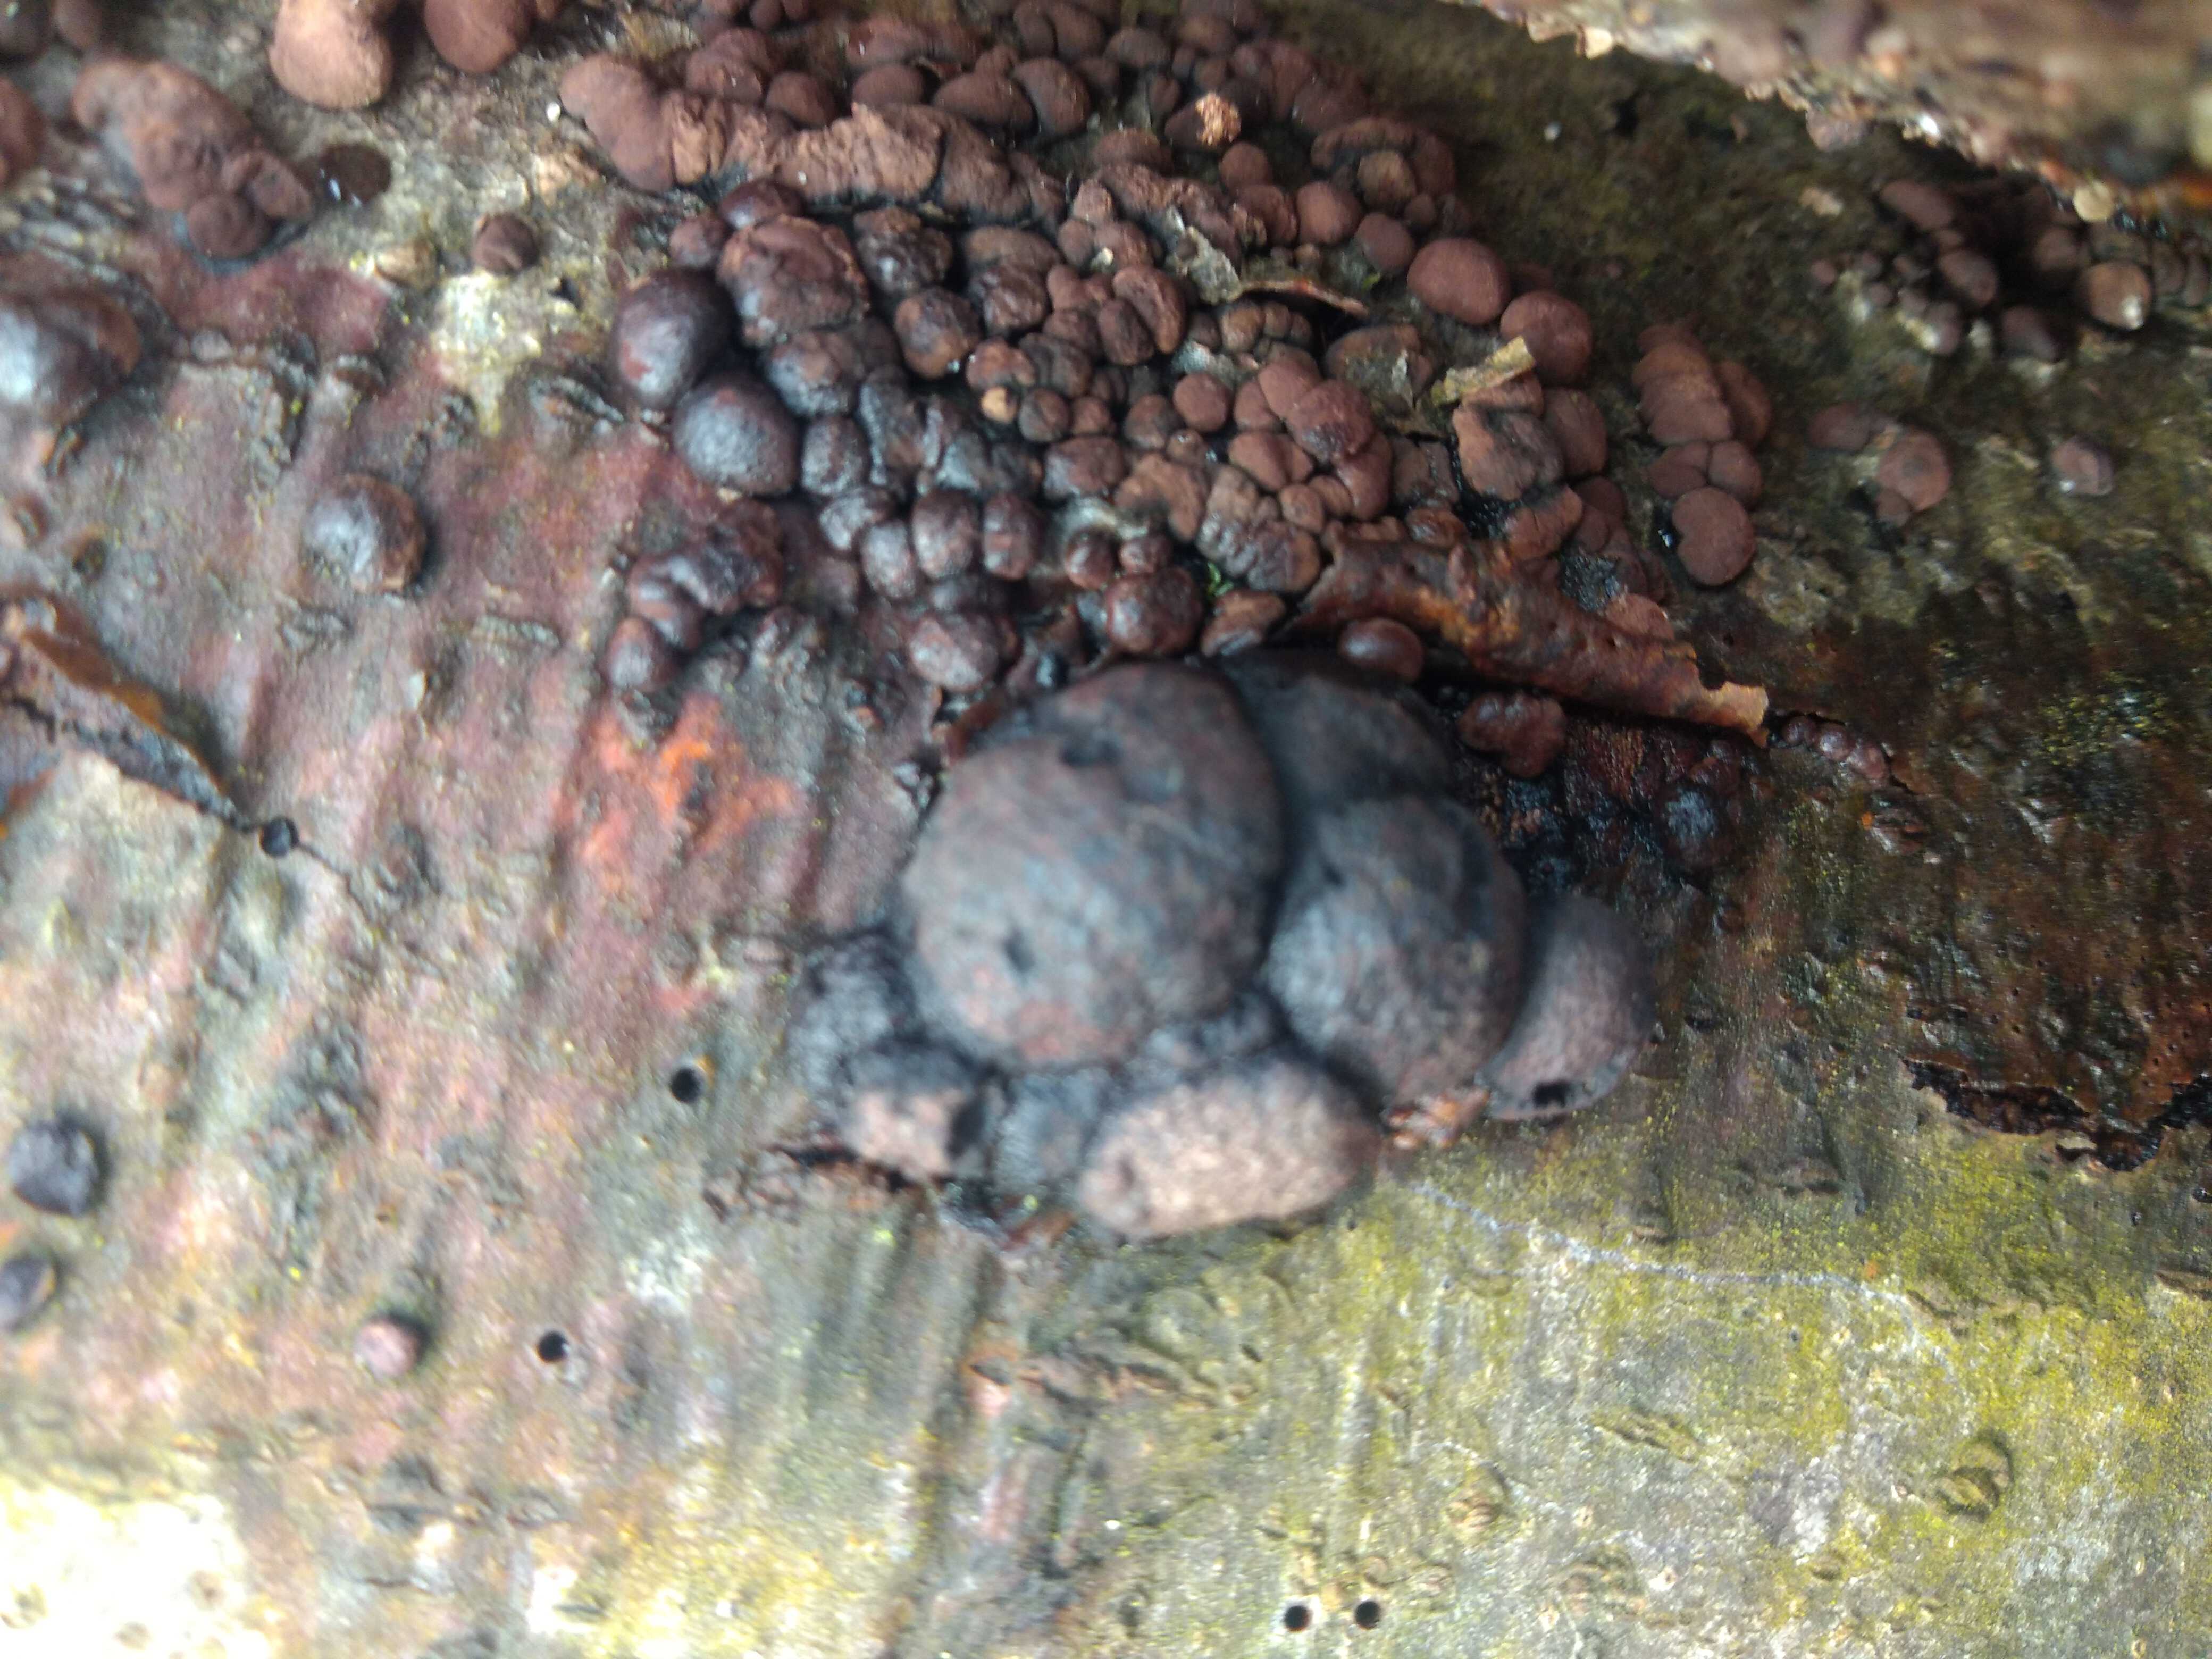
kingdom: Fungi
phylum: Ascomycota
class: Sordariomycetes
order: Xylariales
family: Hypoxylaceae
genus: Hypoxylon
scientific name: Hypoxylon fragiforme
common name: kuljordbær
